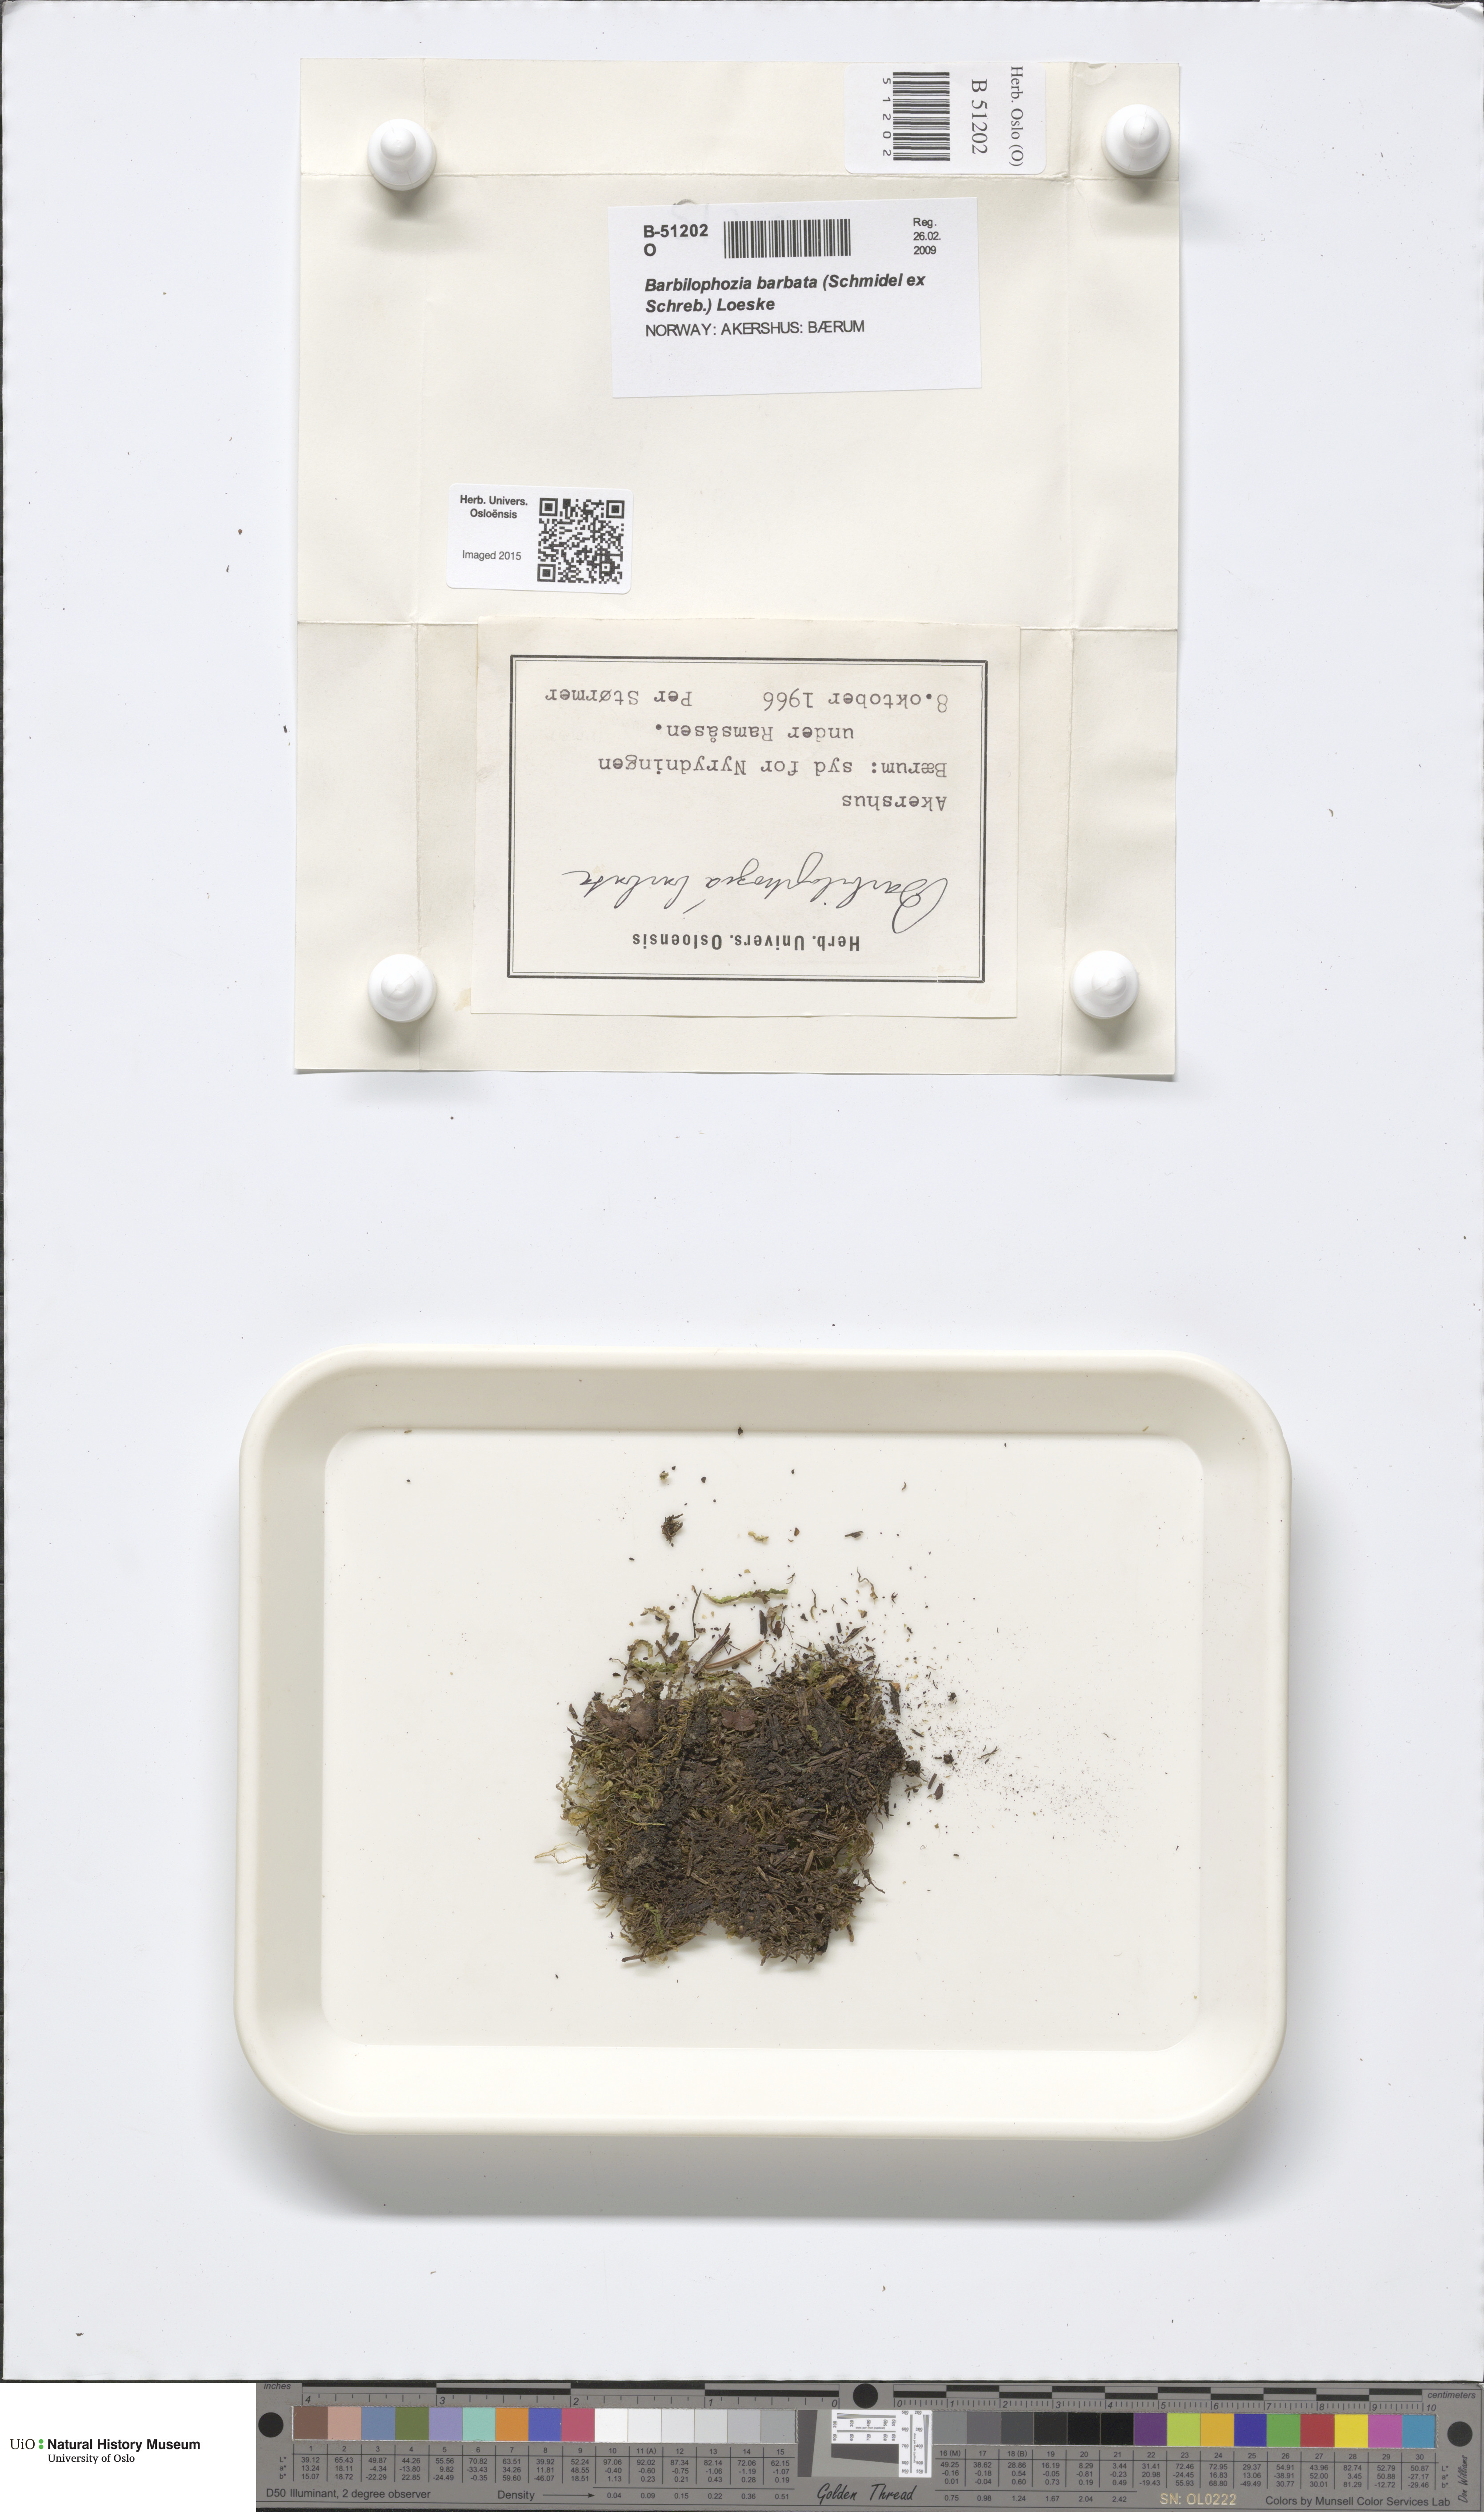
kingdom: Plantae
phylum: Marchantiophyta
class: Jungermanniopsida
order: Jungermanniales
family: Anastrophyllaceae
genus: Barbilophozia
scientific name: Barbilophozia barbata
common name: Bearded pawwort
